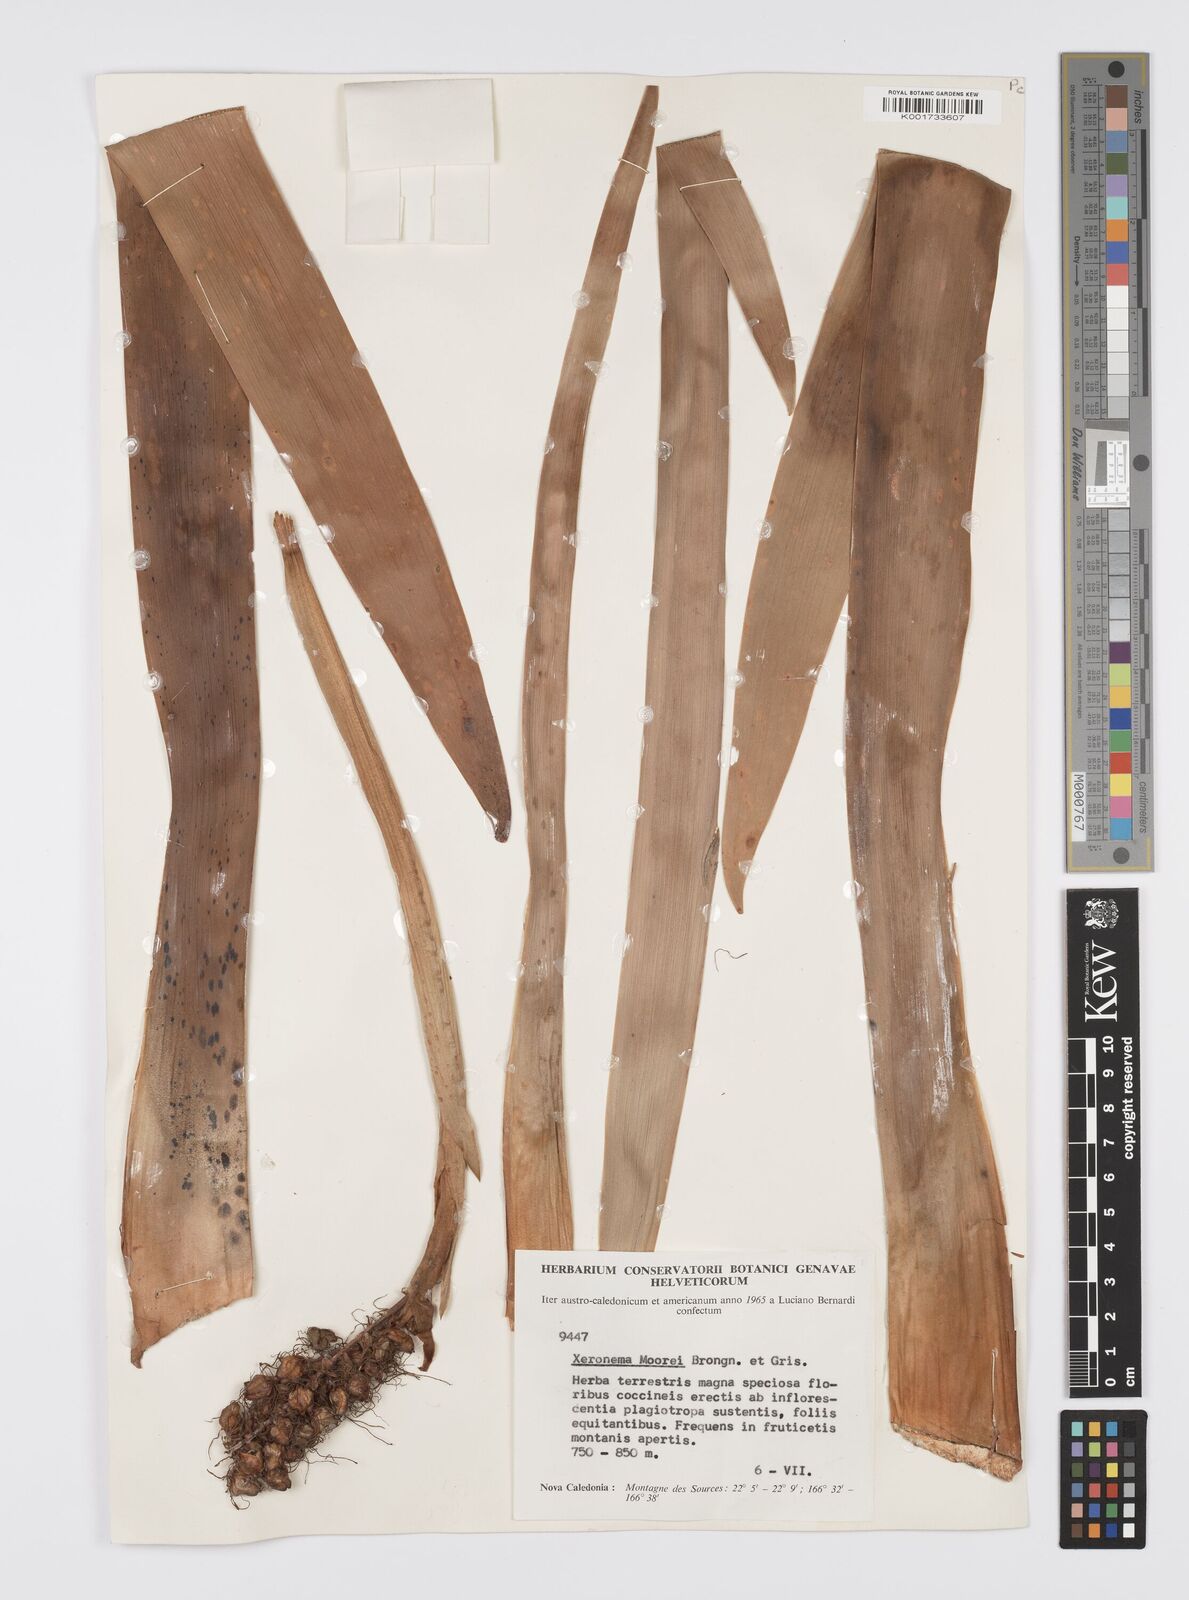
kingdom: Plantae
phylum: Tracheophyta
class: Liliopsida
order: Asparagales
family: Xeronemataceae
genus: Xeronema
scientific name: Xeronema moorei
